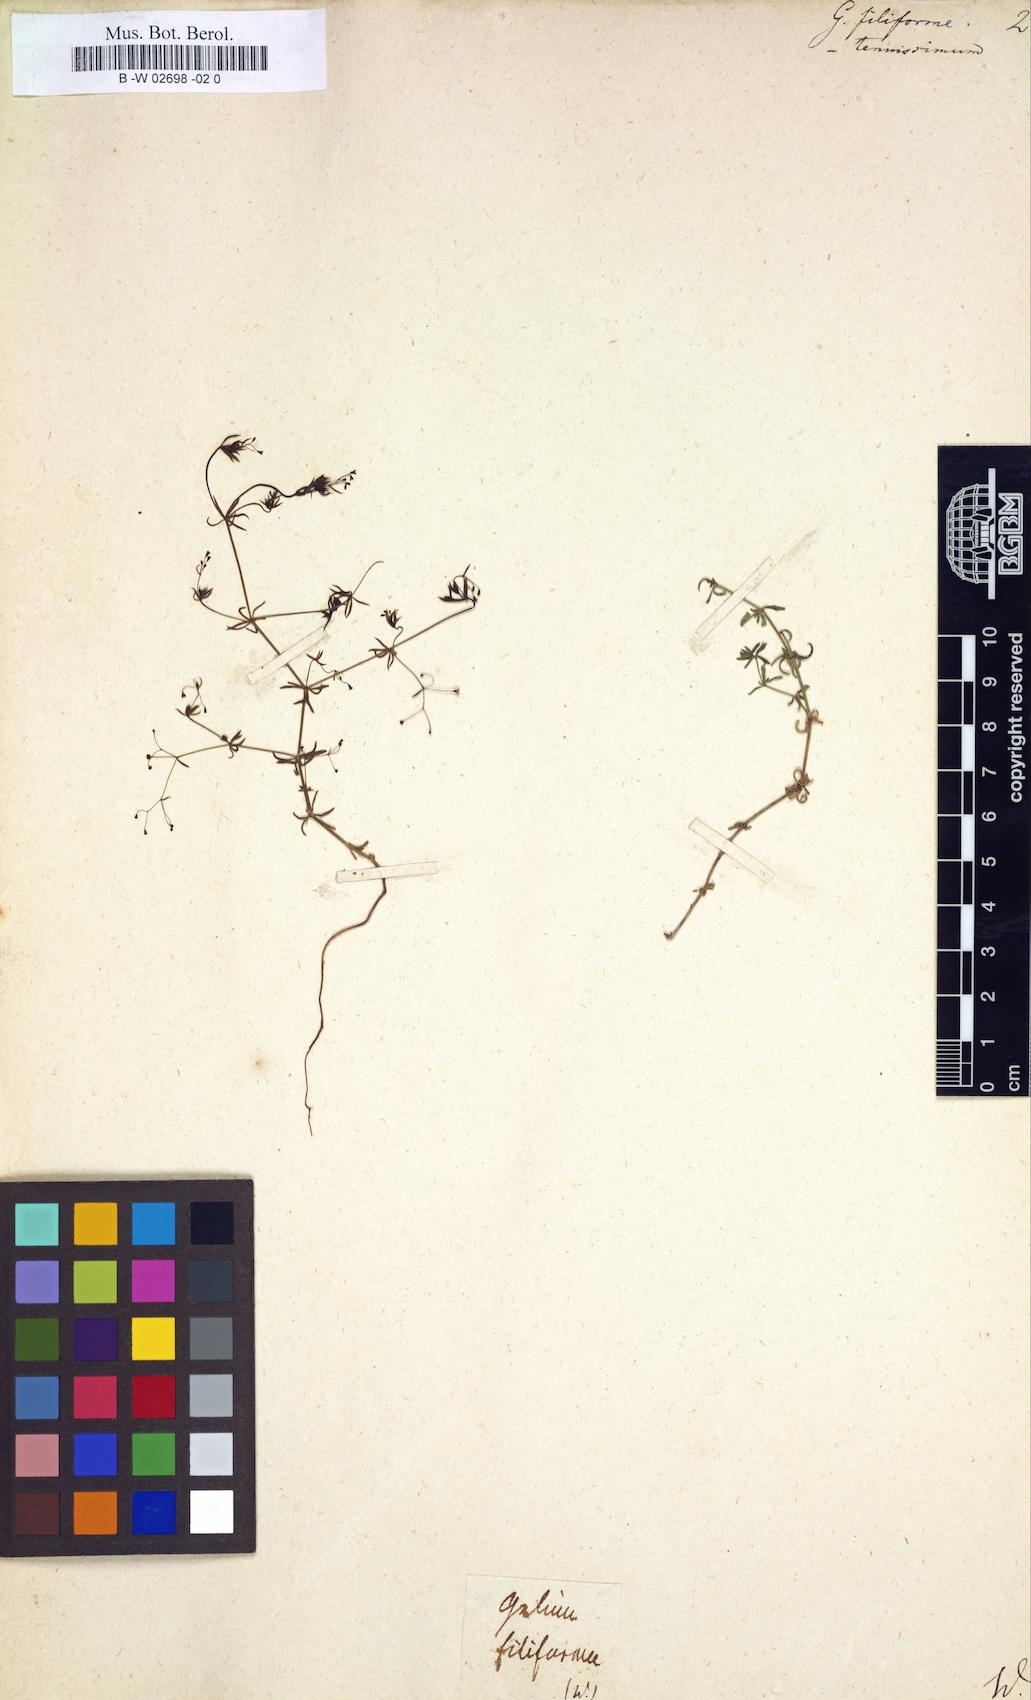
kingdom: Plantae
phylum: Tracheophyta
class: Magnoliopsida
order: Gentianales
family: Rubiaceae
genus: Galium
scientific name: Galium
